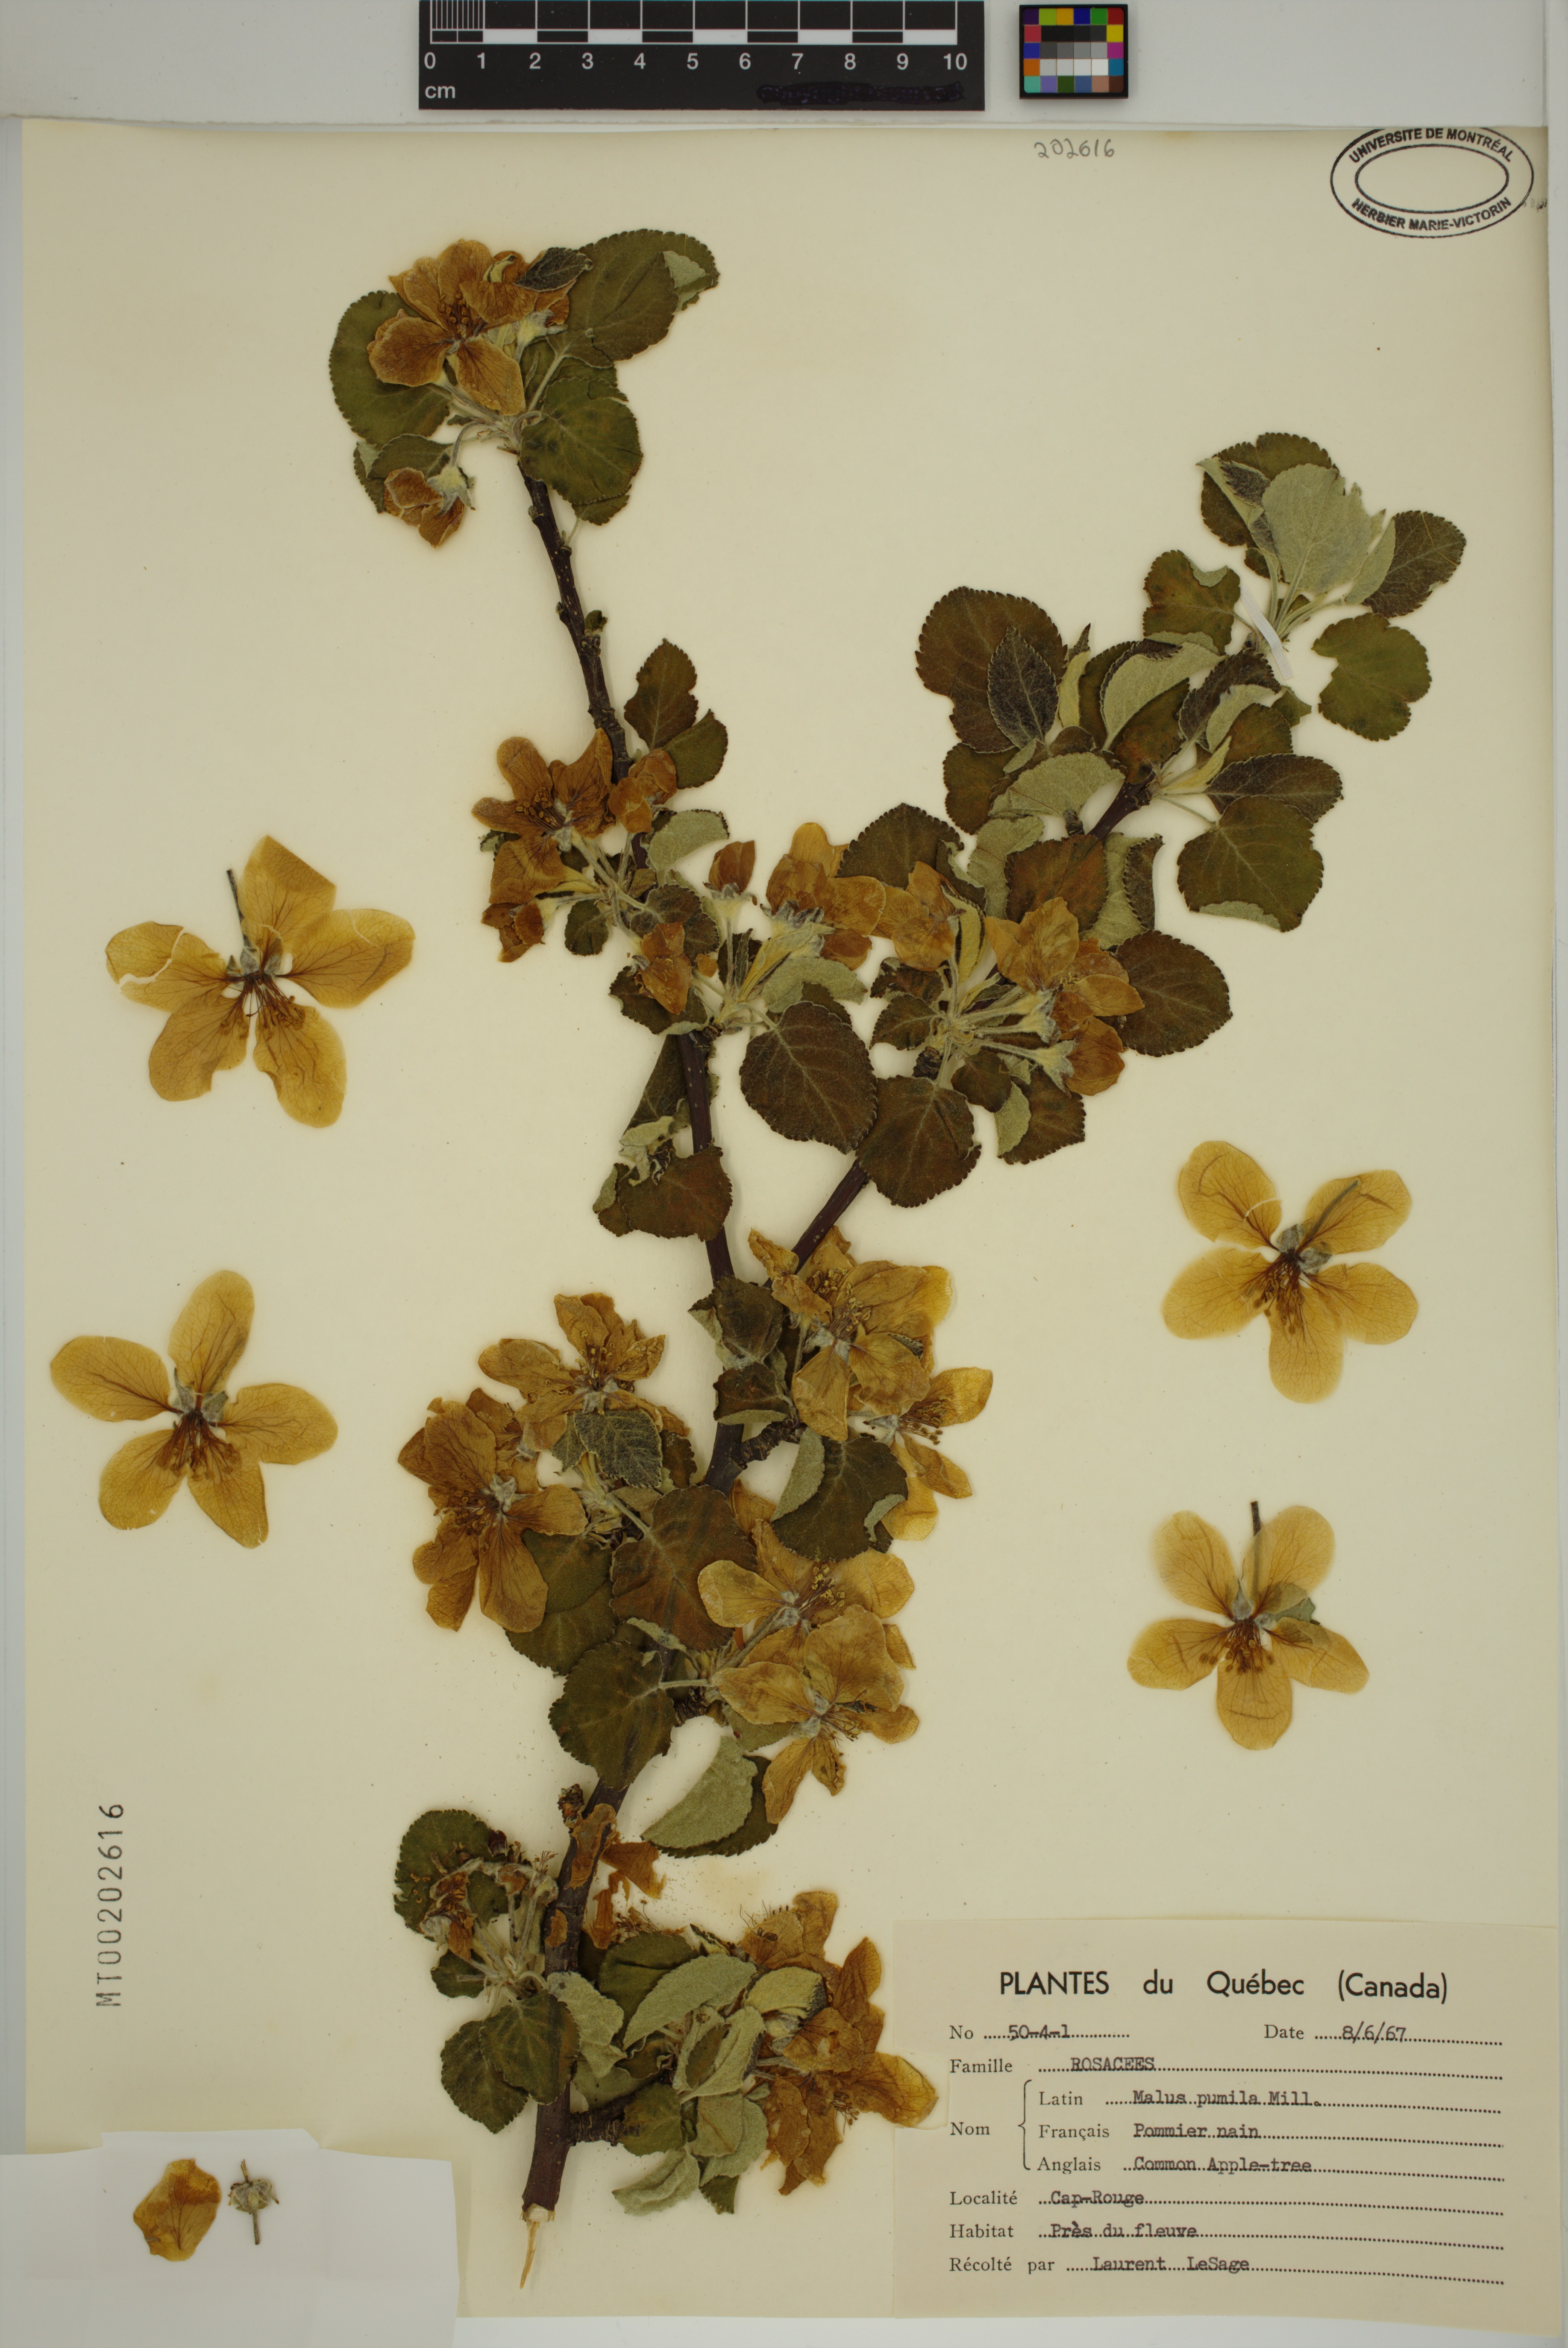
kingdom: Plantae
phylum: Tracheophyta
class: Magnoliopsida
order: Rosales
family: Rosaceae
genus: Malus
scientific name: Malus domestica
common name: Apple
